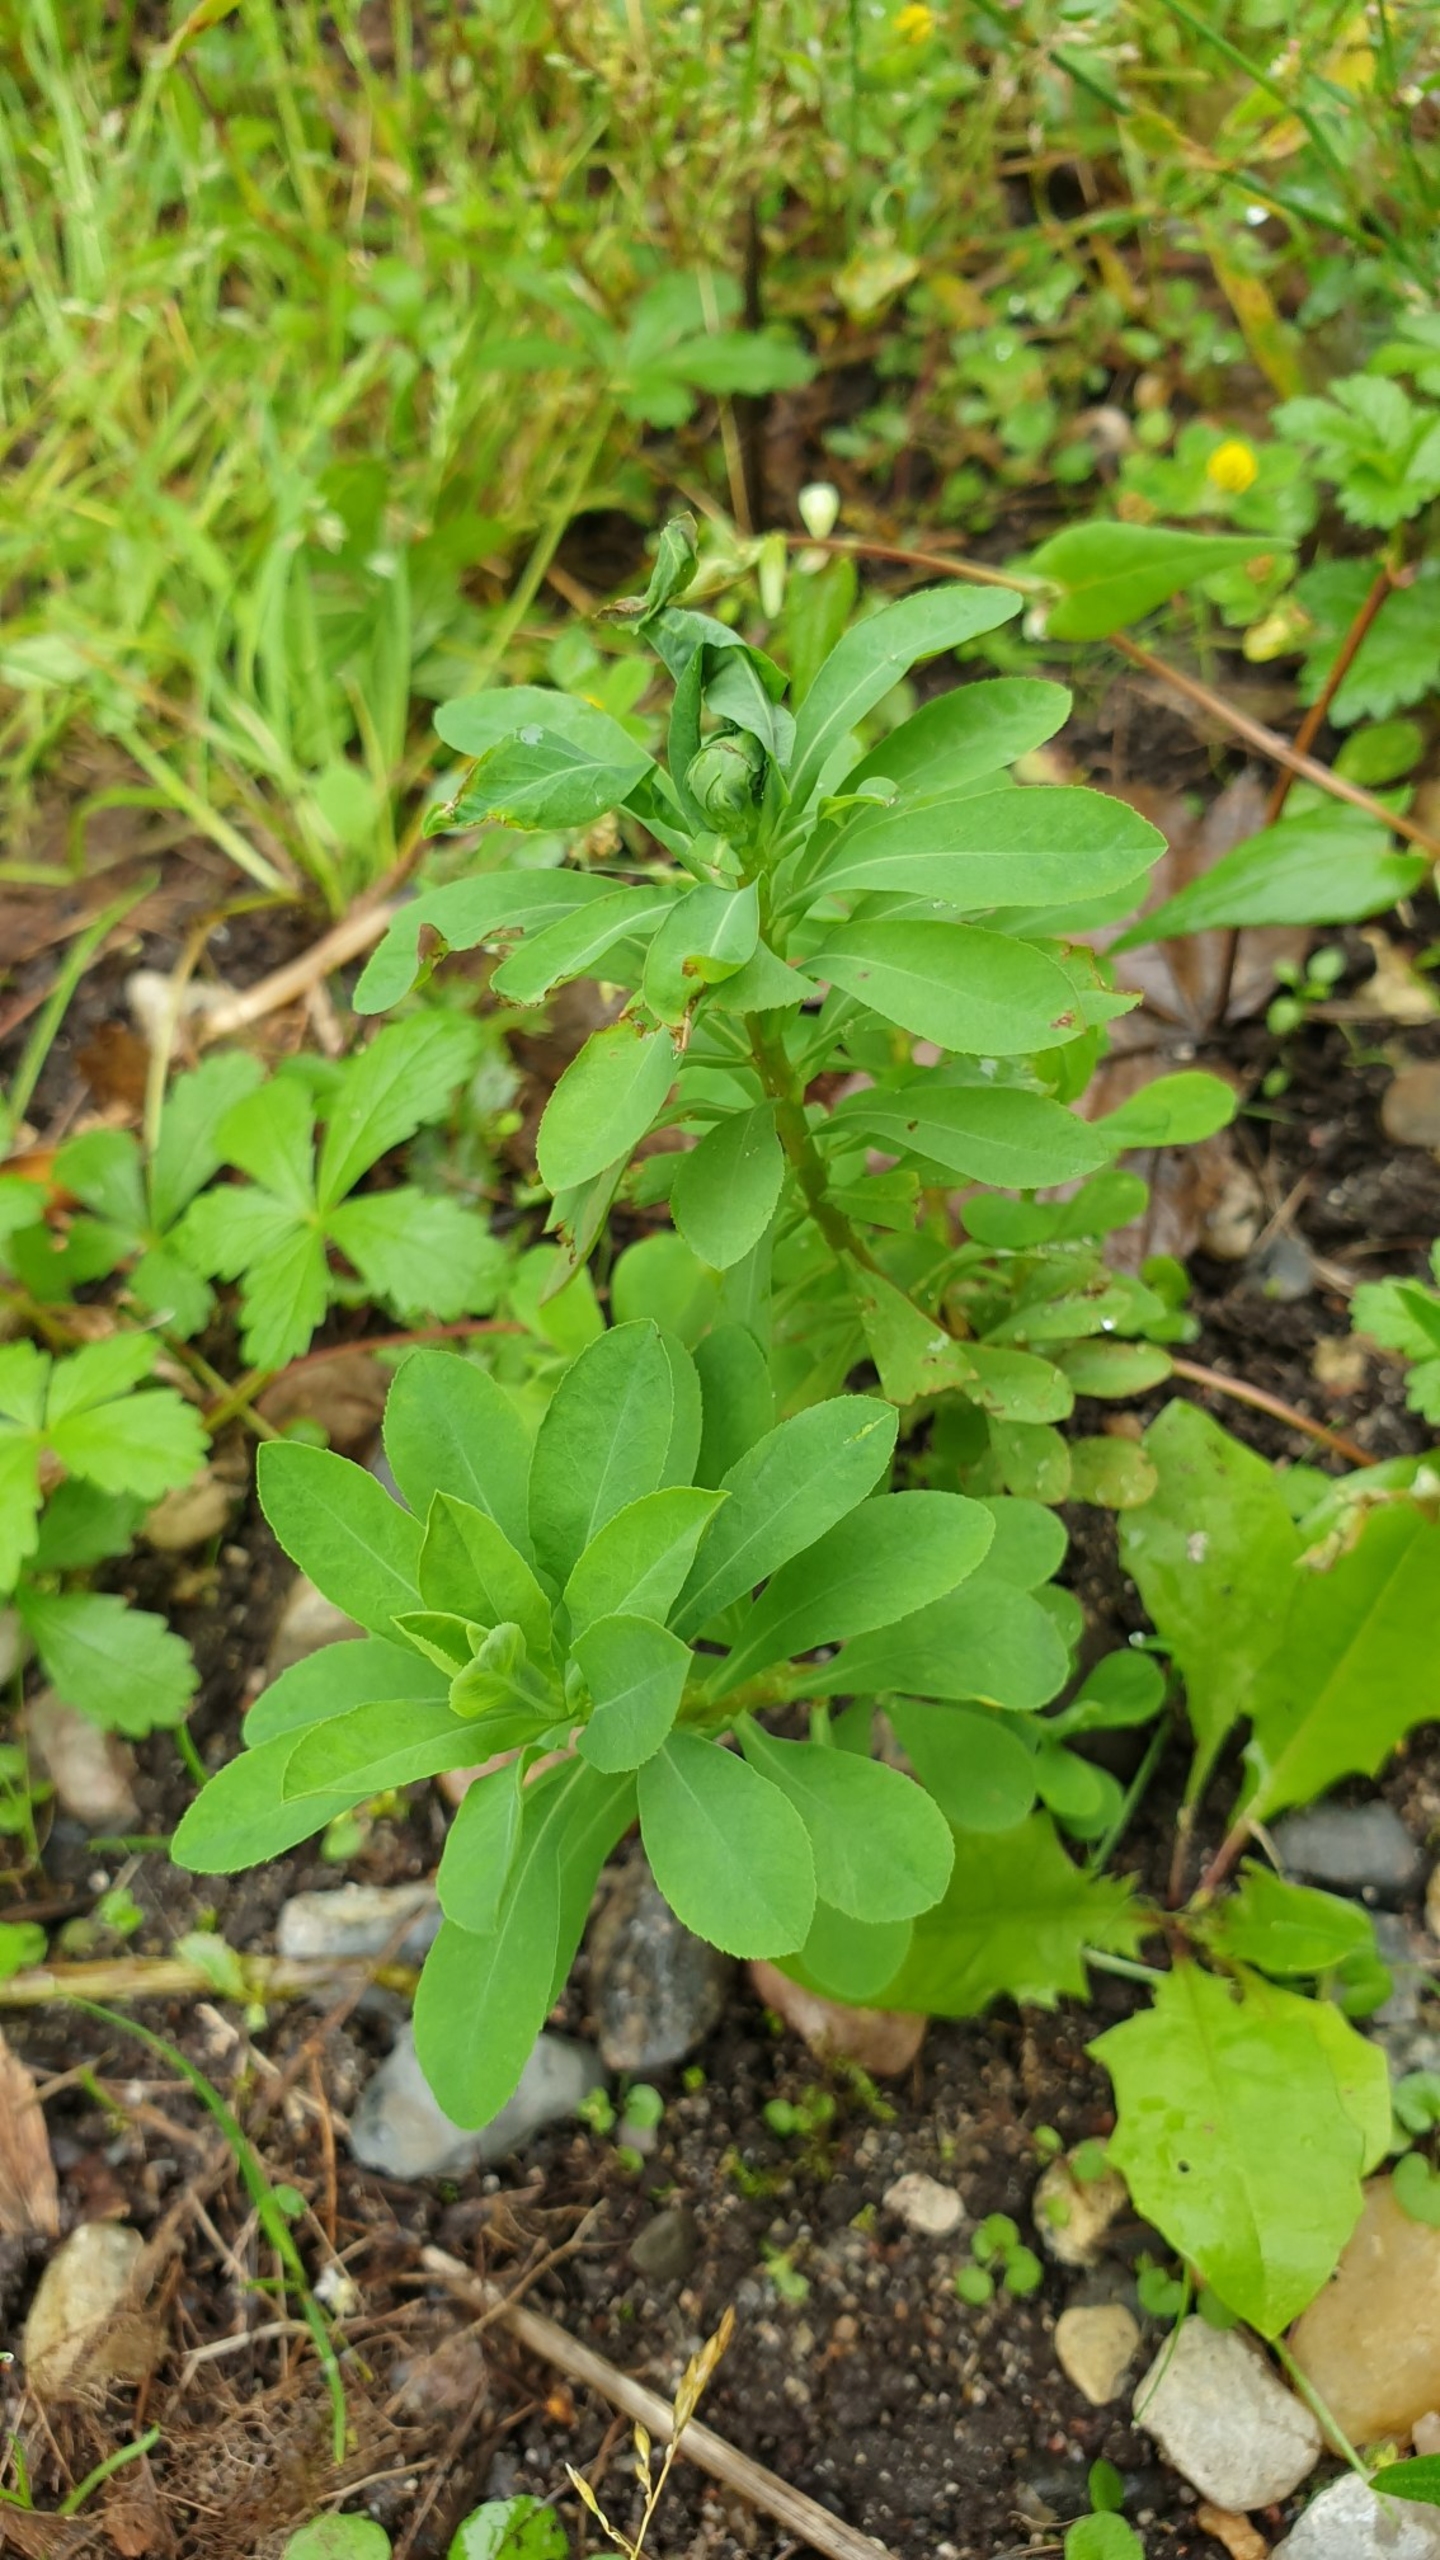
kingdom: Plantae
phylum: Tracheophyta
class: Magnoliopsida
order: Malpighiales
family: Euphorbiaceae
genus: Euphorbia
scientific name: Euphorbia stricta
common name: Opret vortemælk
